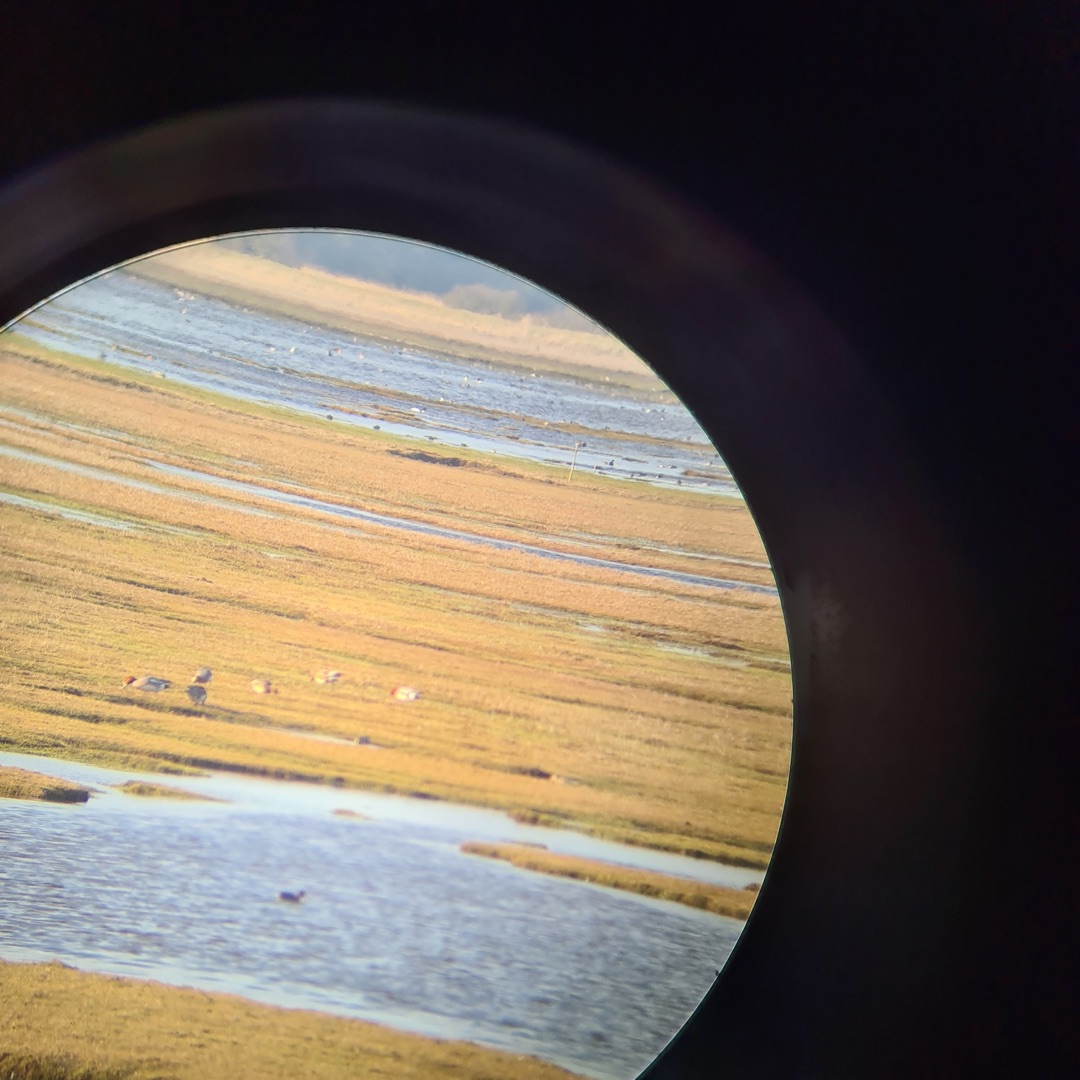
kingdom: Animalia
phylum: Chordata
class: Aves
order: Anseriformes
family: Anatidae
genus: Mareca
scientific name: Mareca penelope
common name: Pibeand
